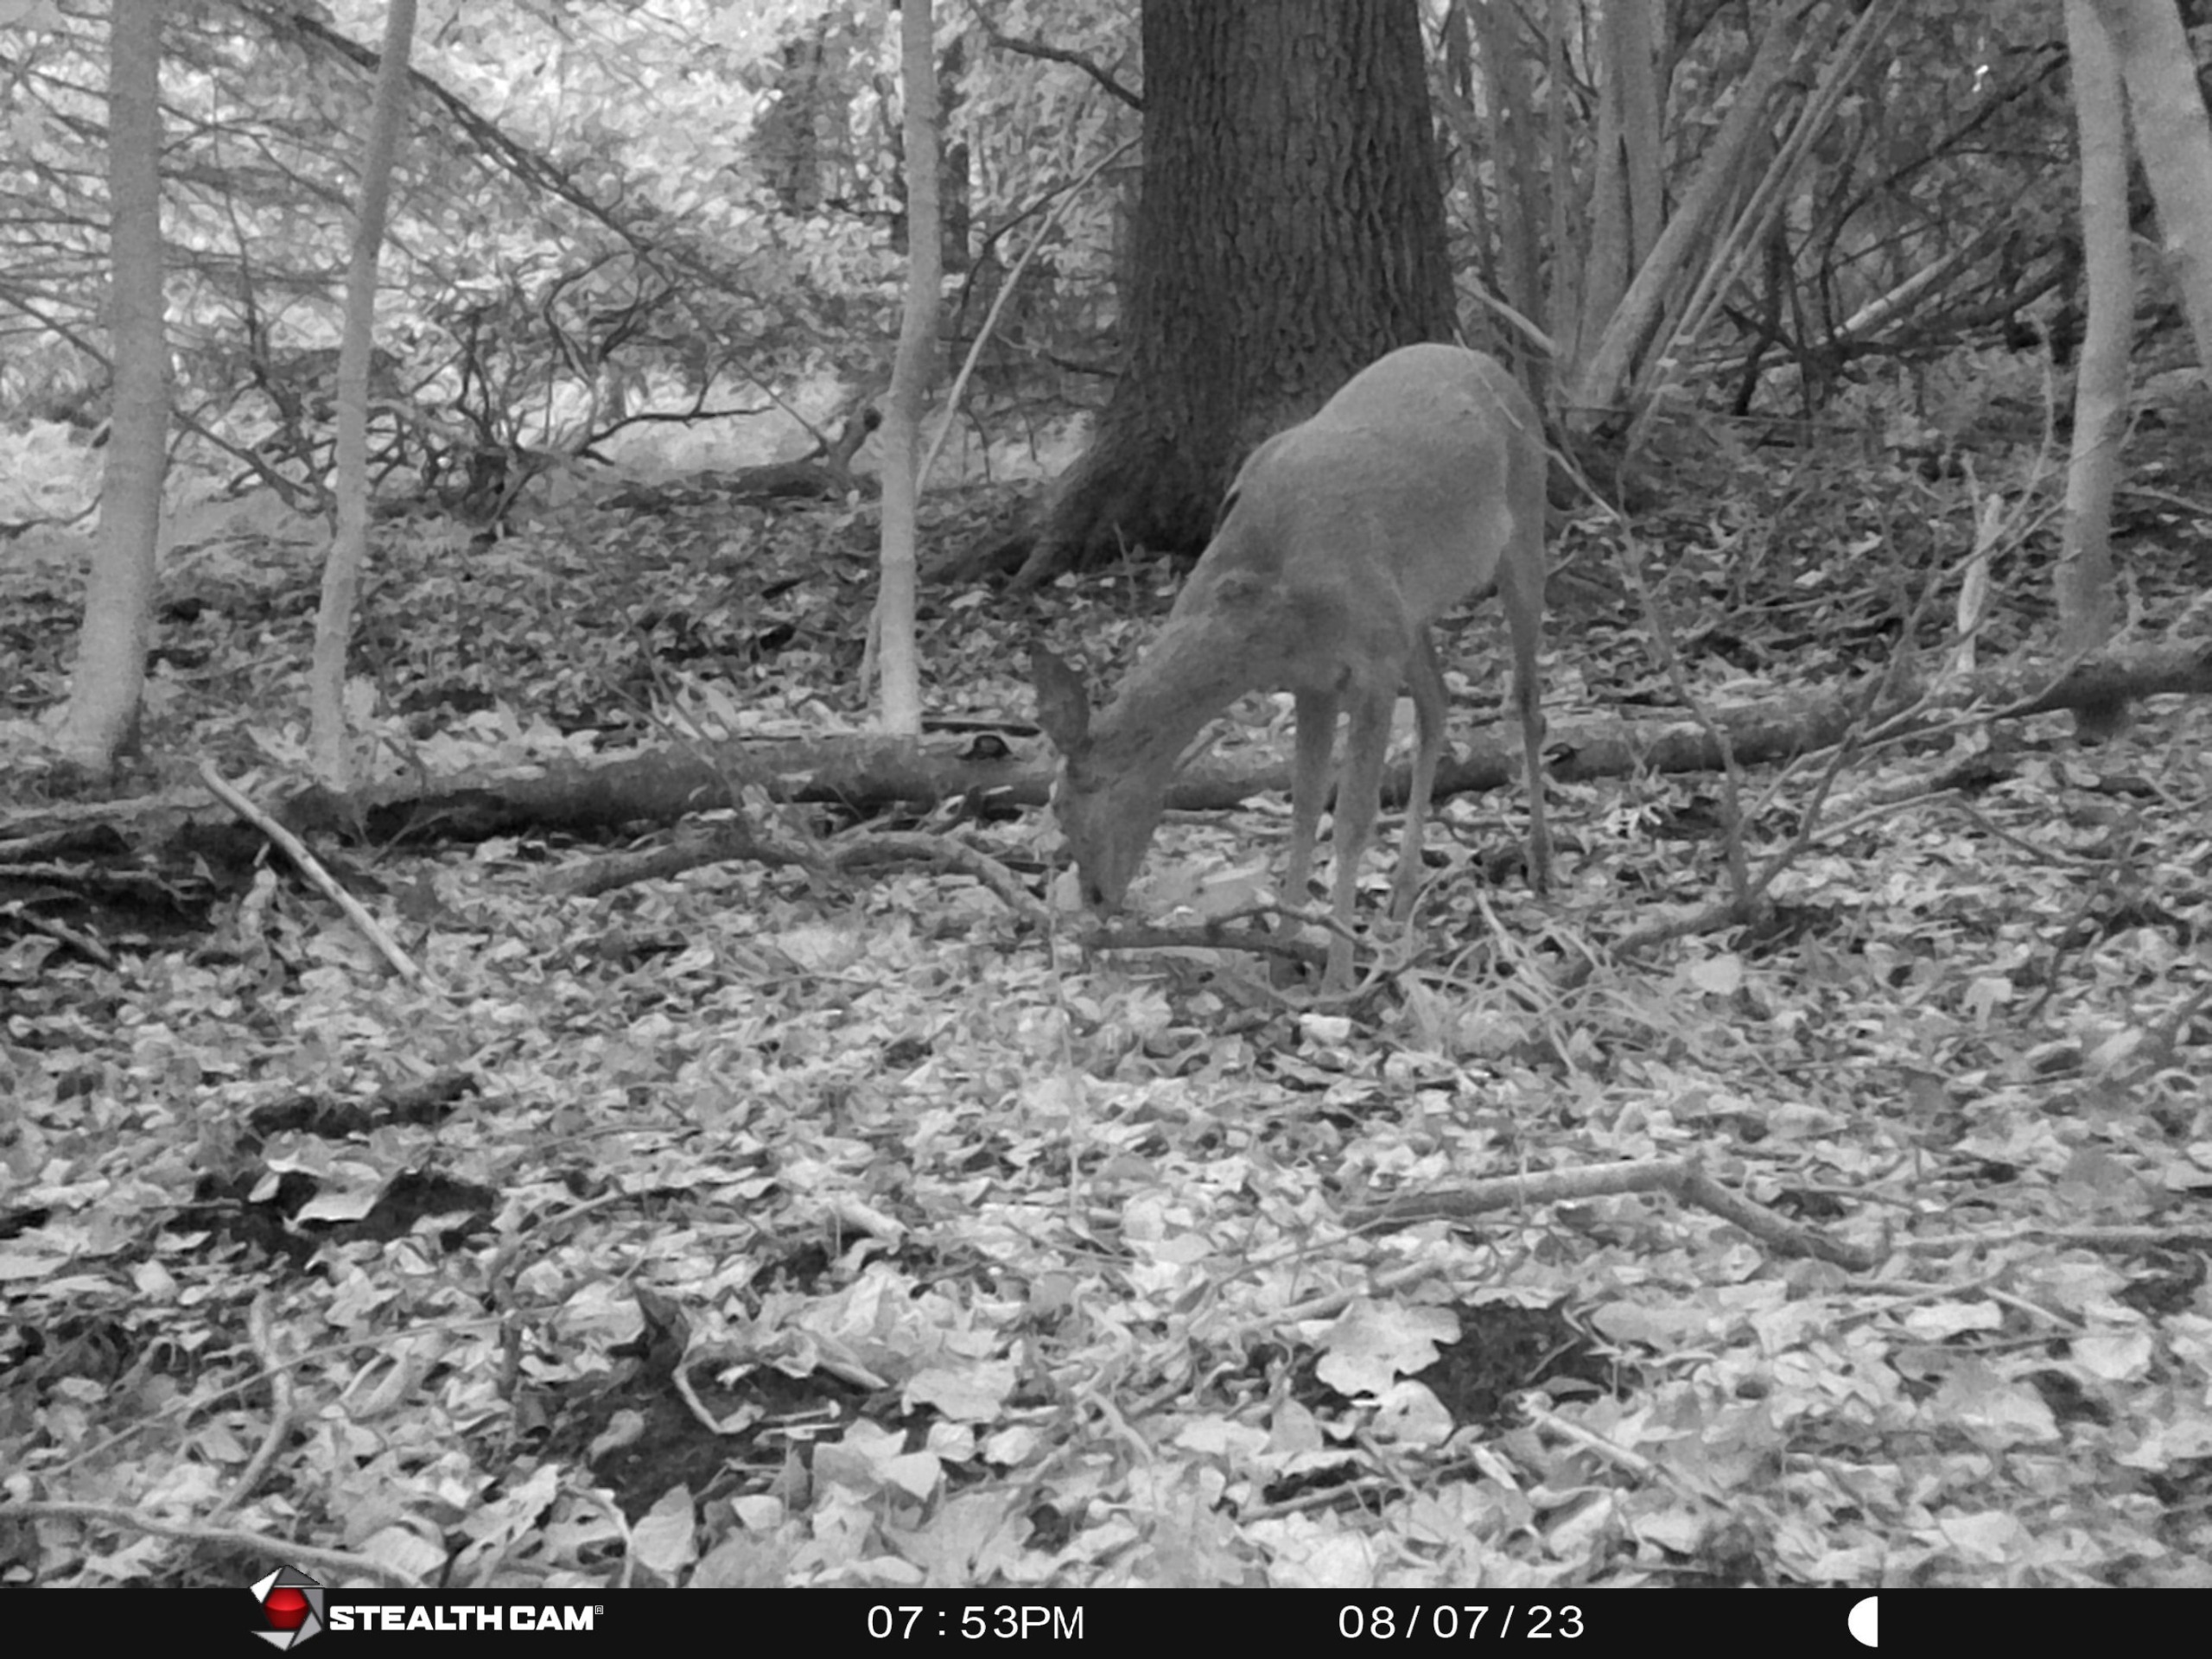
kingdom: Animalia
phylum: Chordata
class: Mammalia
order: Artiodactyla
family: Cervidae
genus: Capreolus
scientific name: Capreolus capreolus
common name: Rådyr
